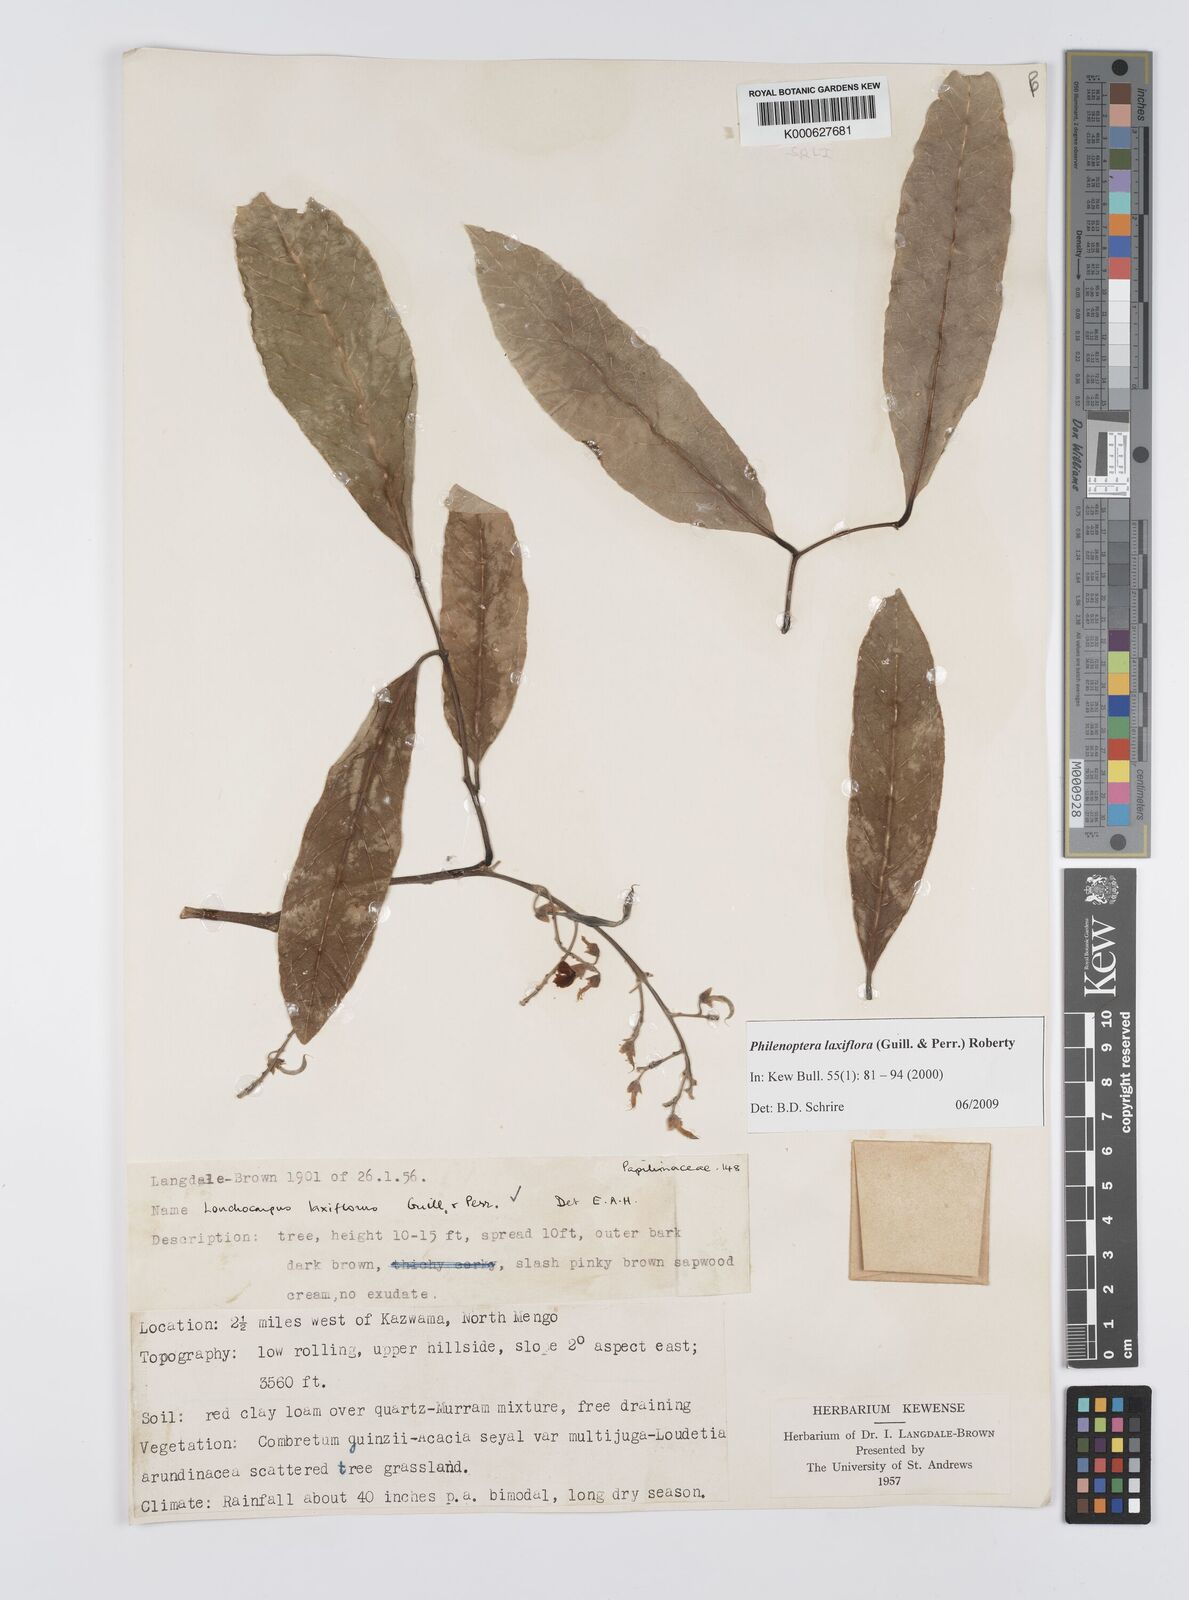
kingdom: Plantae
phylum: Tracheophyta
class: Magnoliopsida
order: Fabales
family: Fabaceae
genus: Philenoptera
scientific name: Philenoptera laxiflora
